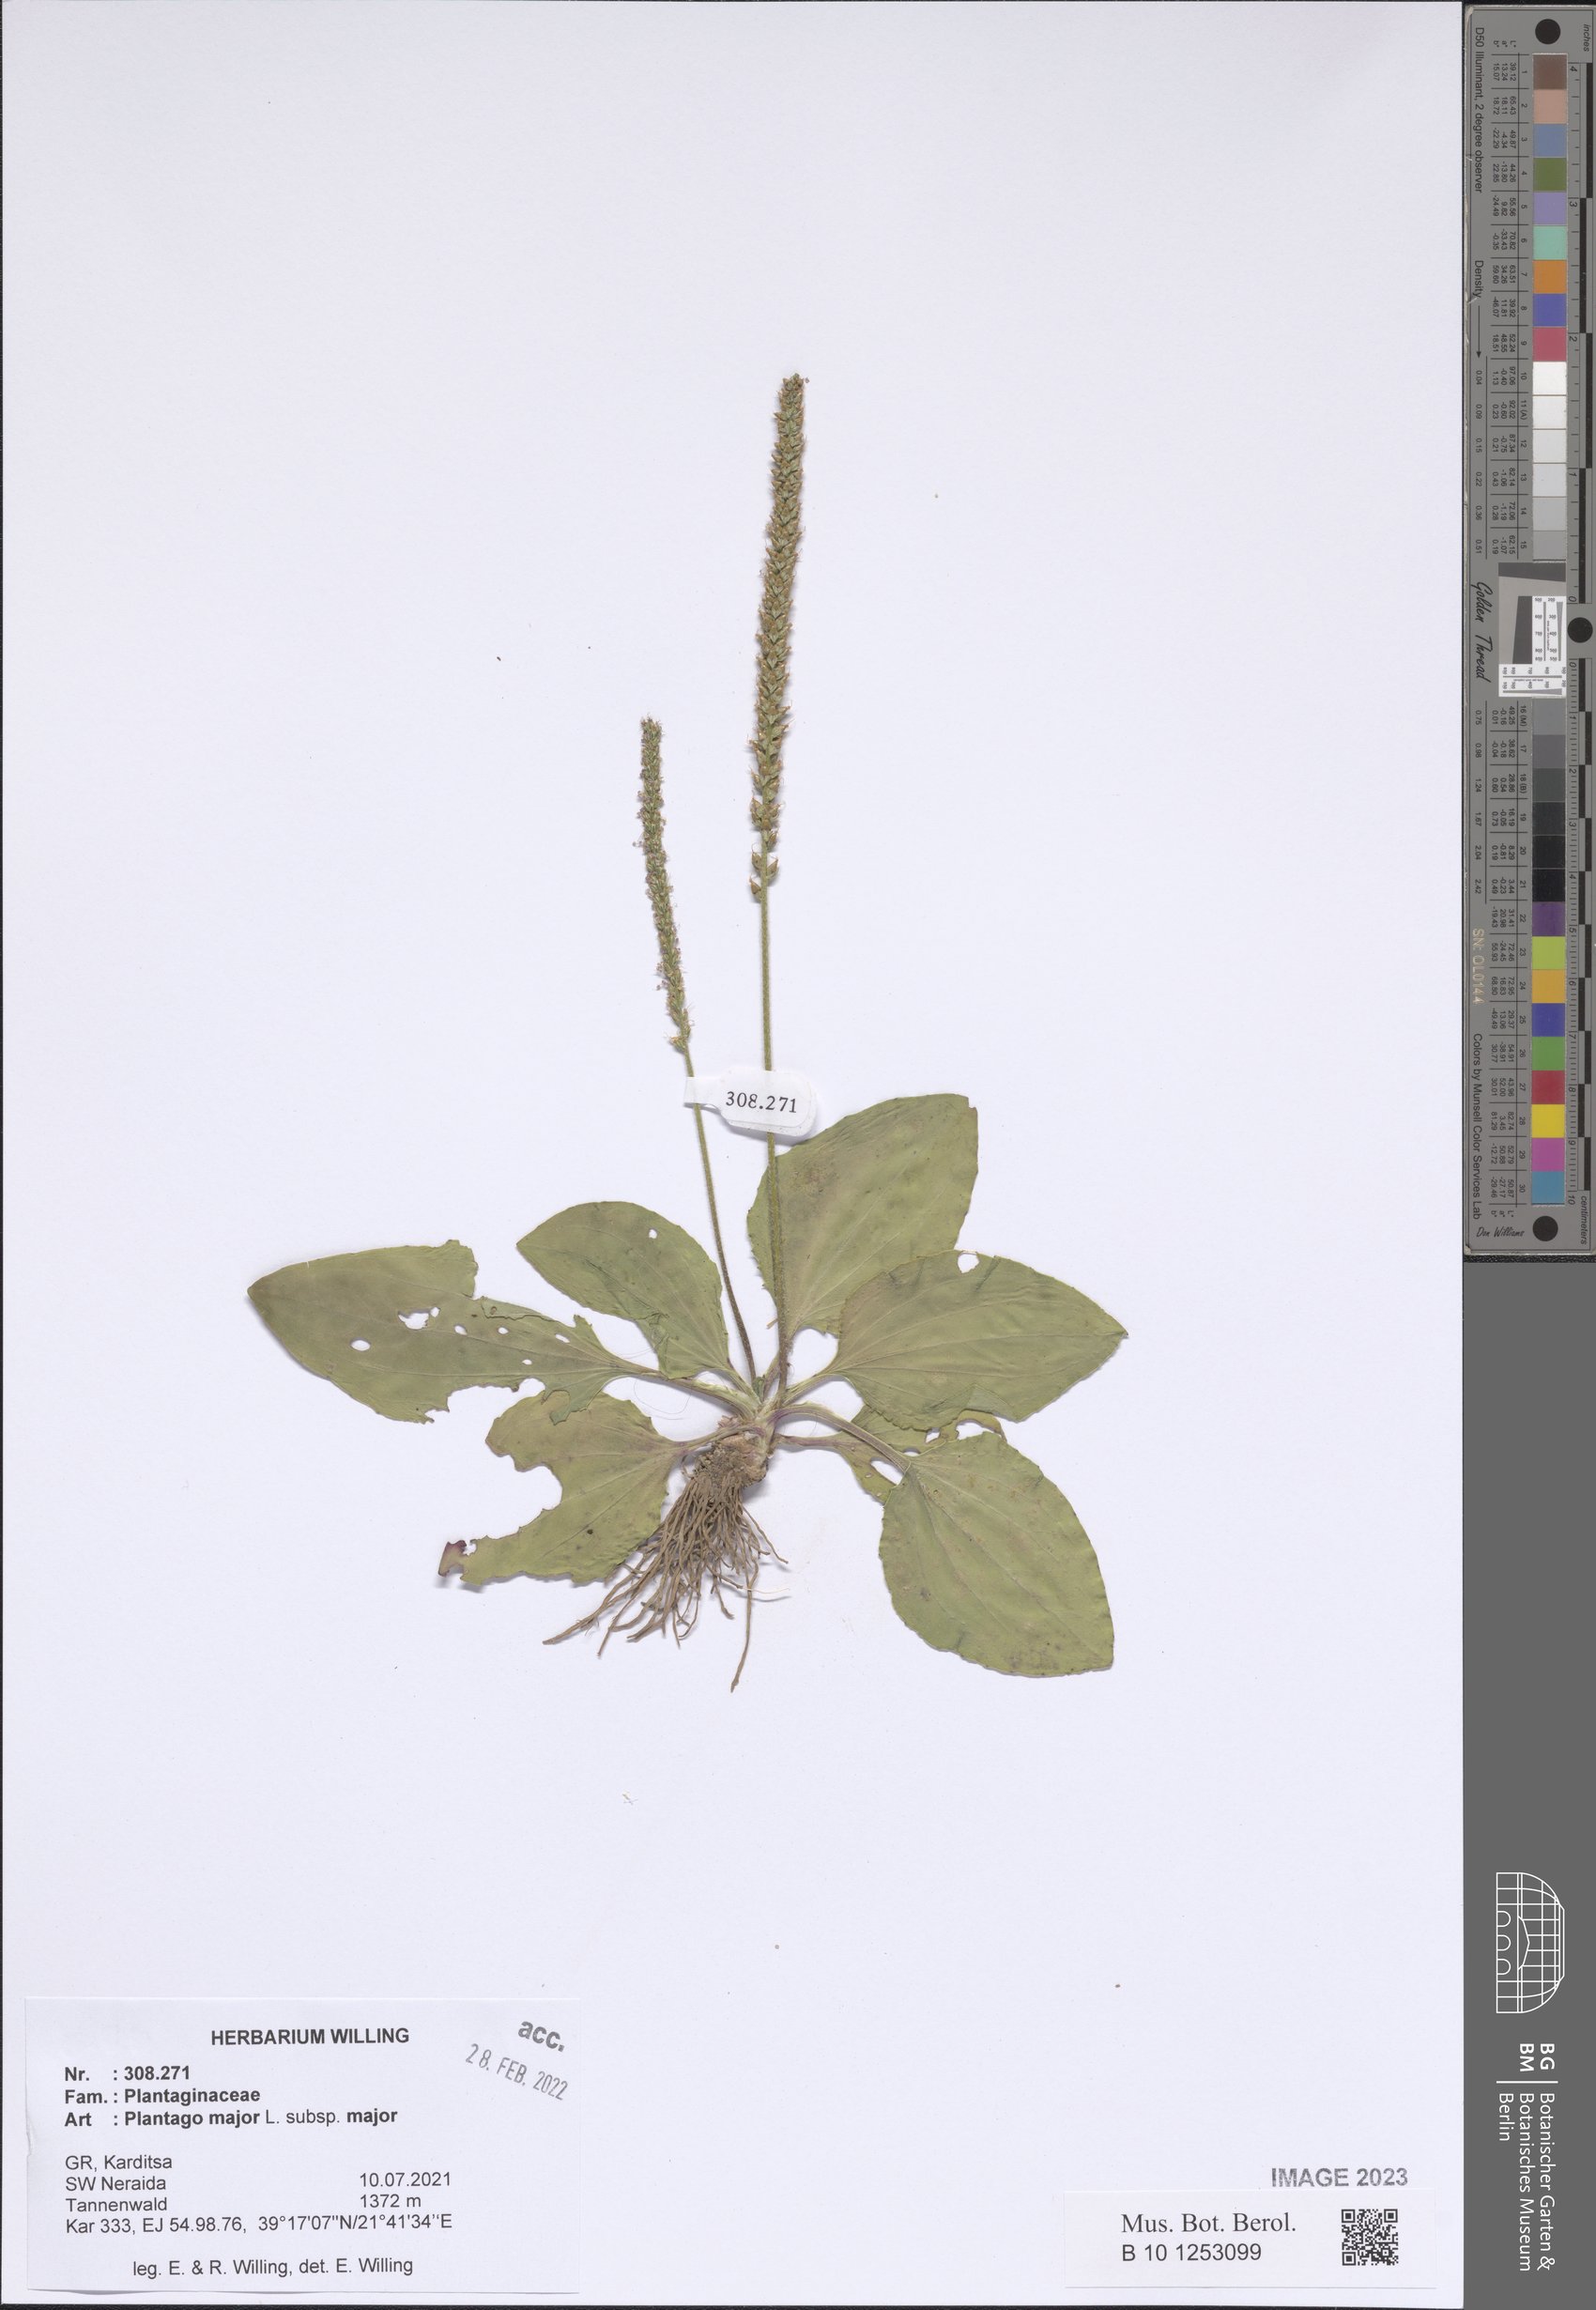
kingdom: Plantae
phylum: Tracheophyta
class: Magnoliopsida
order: Lamiales
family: Plantaginaceae
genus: Plantago
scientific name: Plantago major
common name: Common plantain
